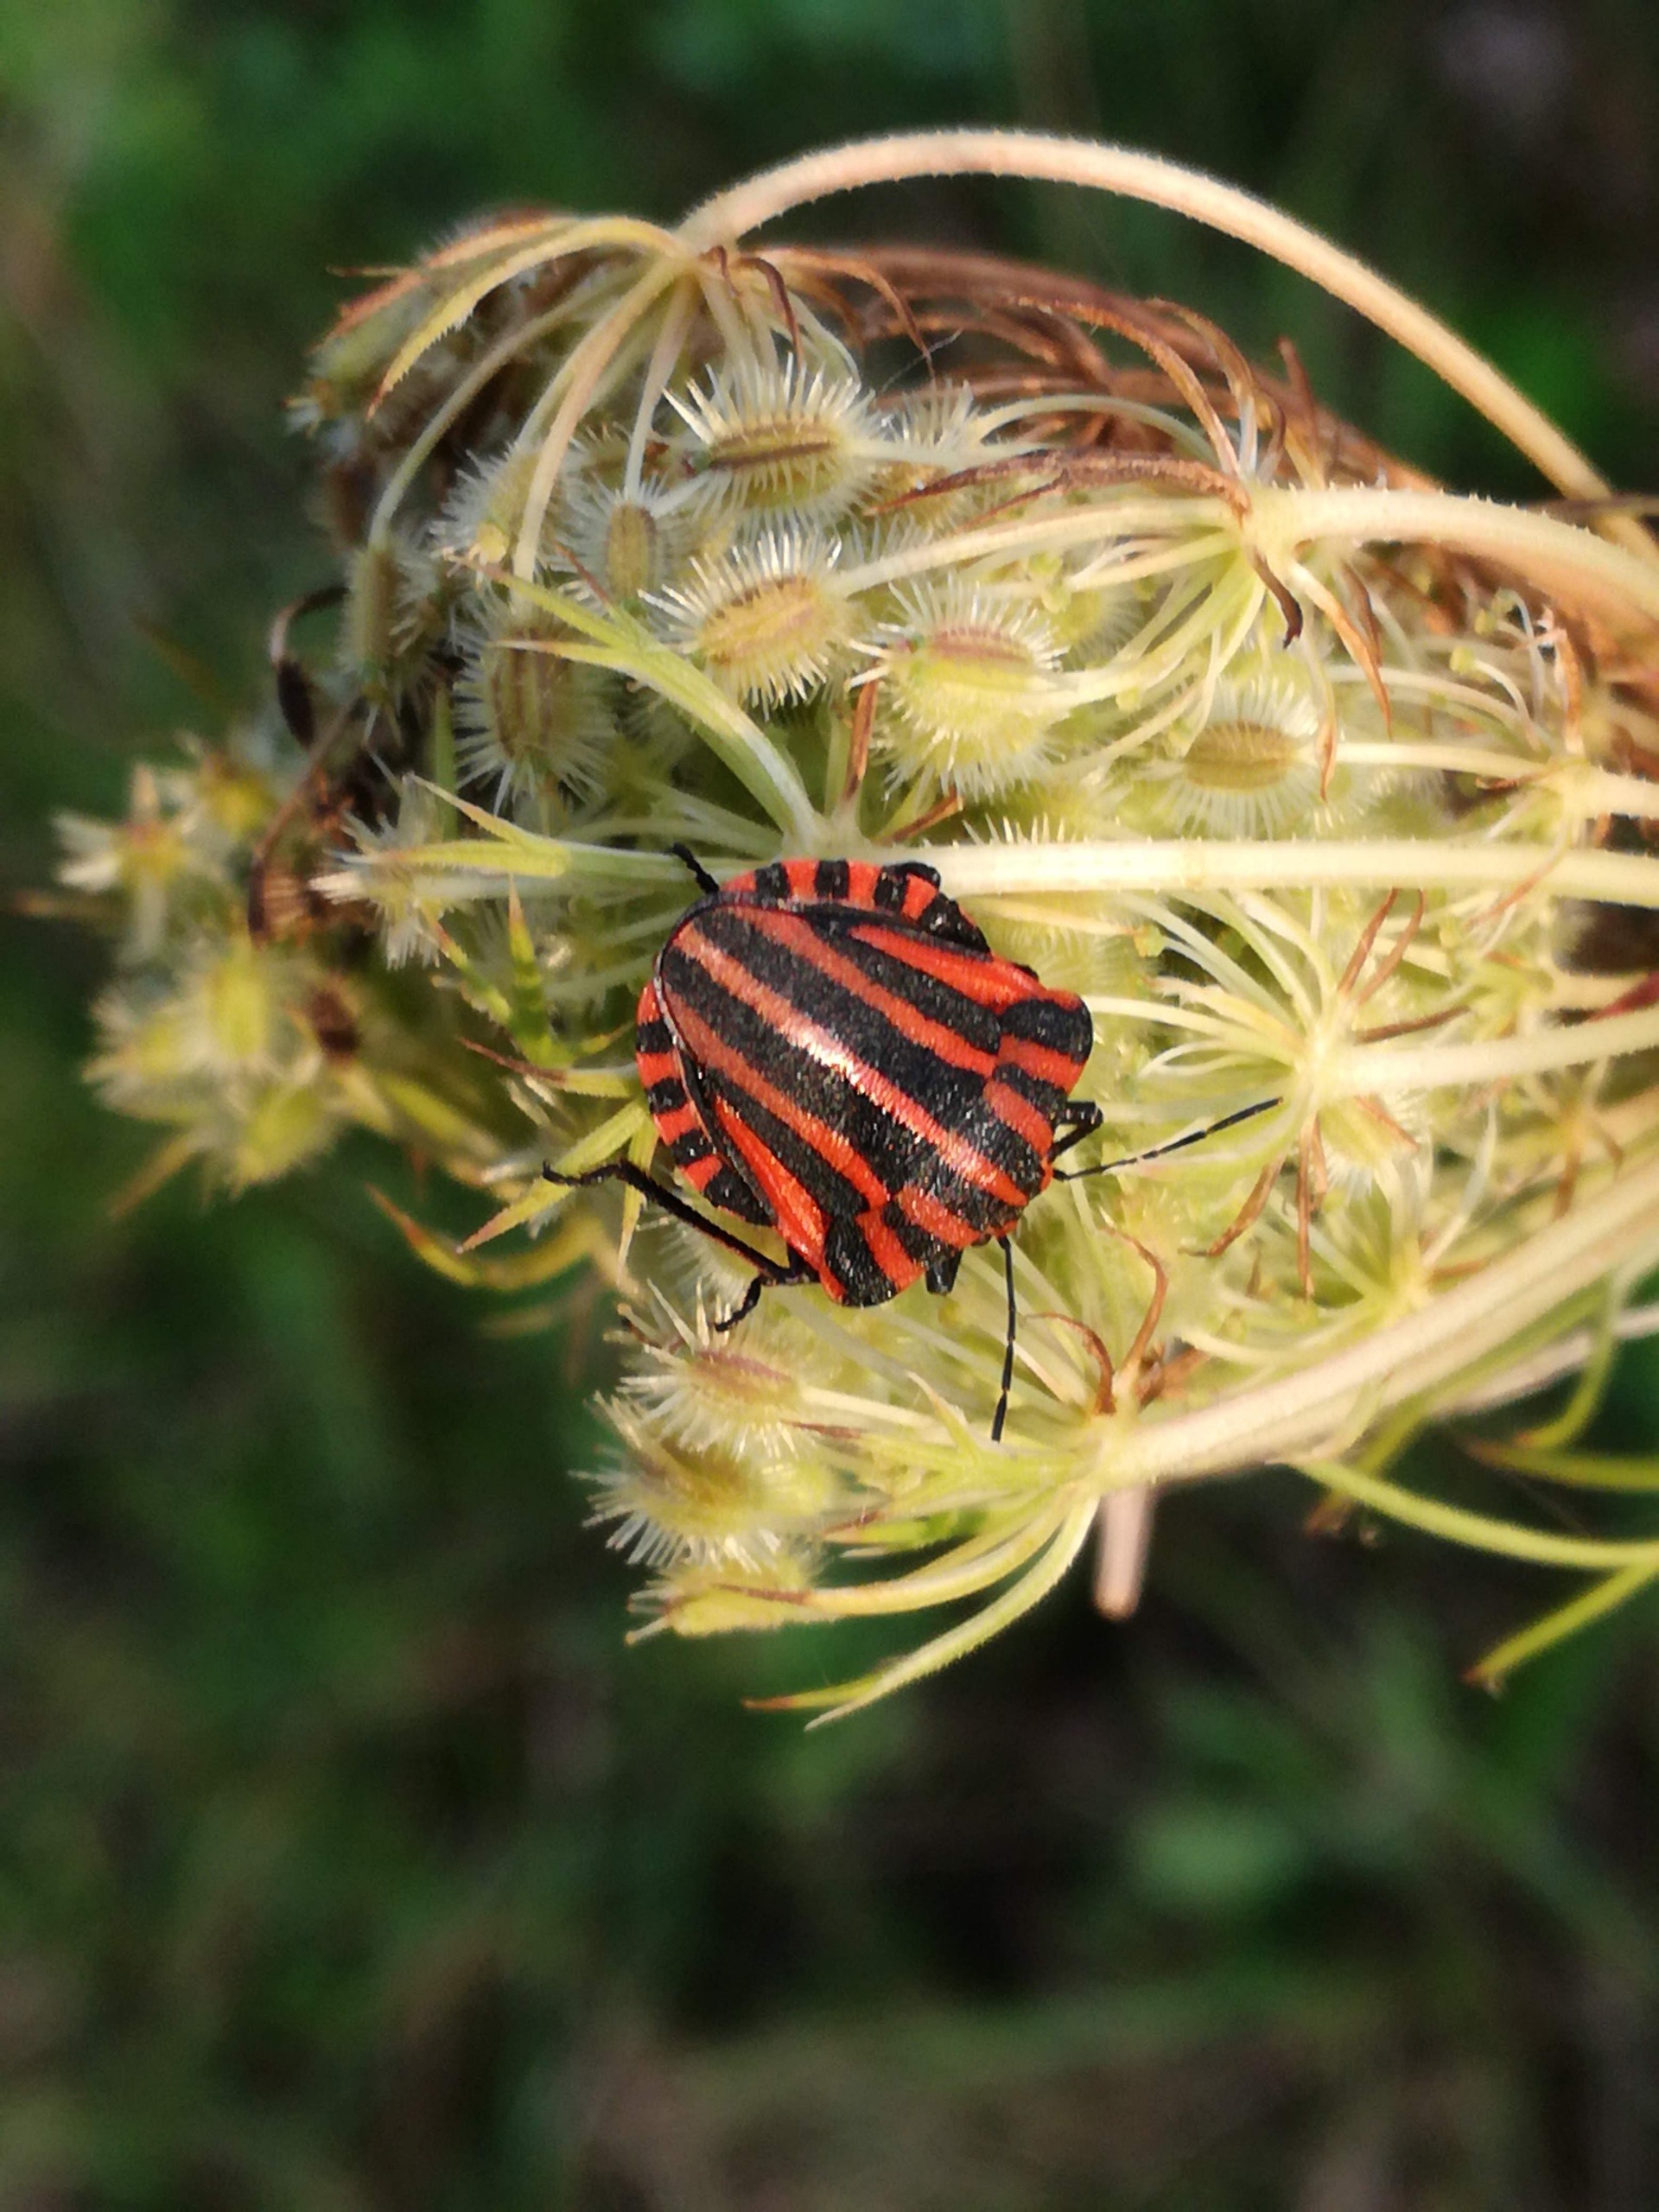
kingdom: Animalia
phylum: Arthropoda
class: Insecta
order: Hemiptera
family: Pentatomidae
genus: Graphosoma
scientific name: Graphosoma italicum
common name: Stribetæge
